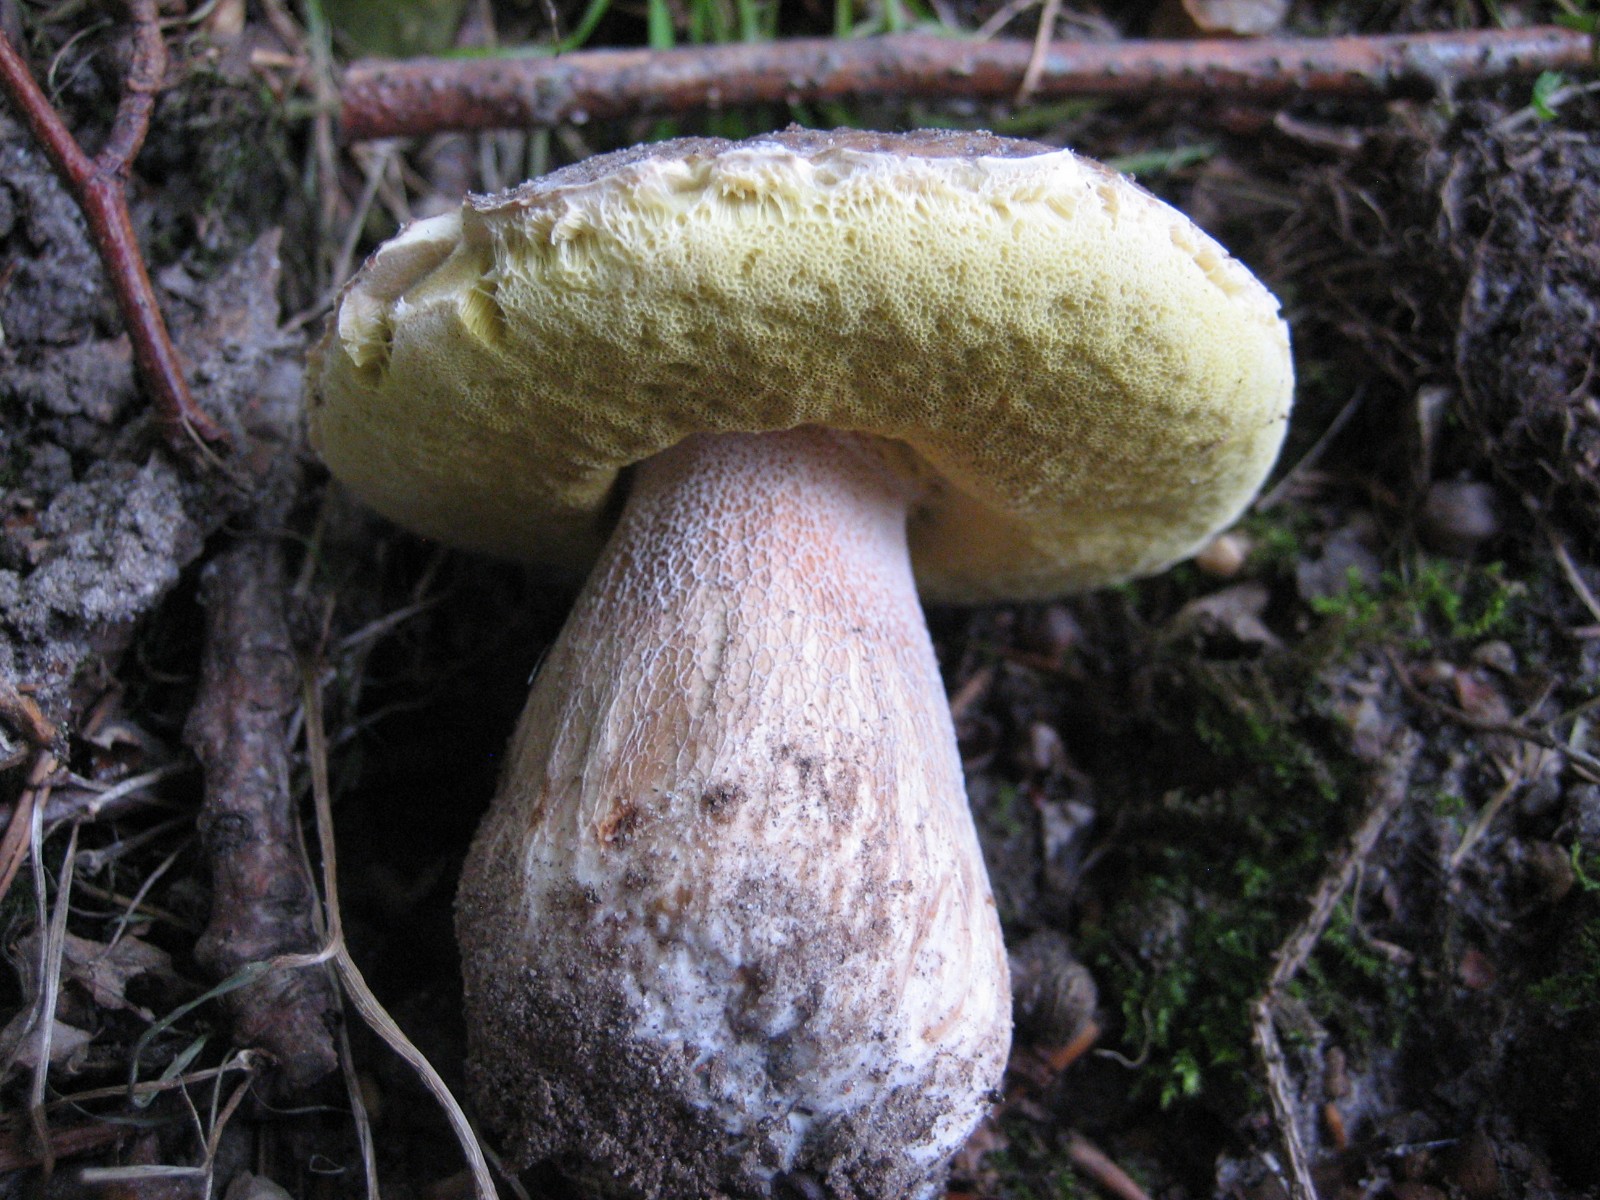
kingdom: Fungi
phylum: Basidiomycota
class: Agaricomycetes
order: Boletales
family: Boletaceae
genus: Boletus
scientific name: Boletus edulis
